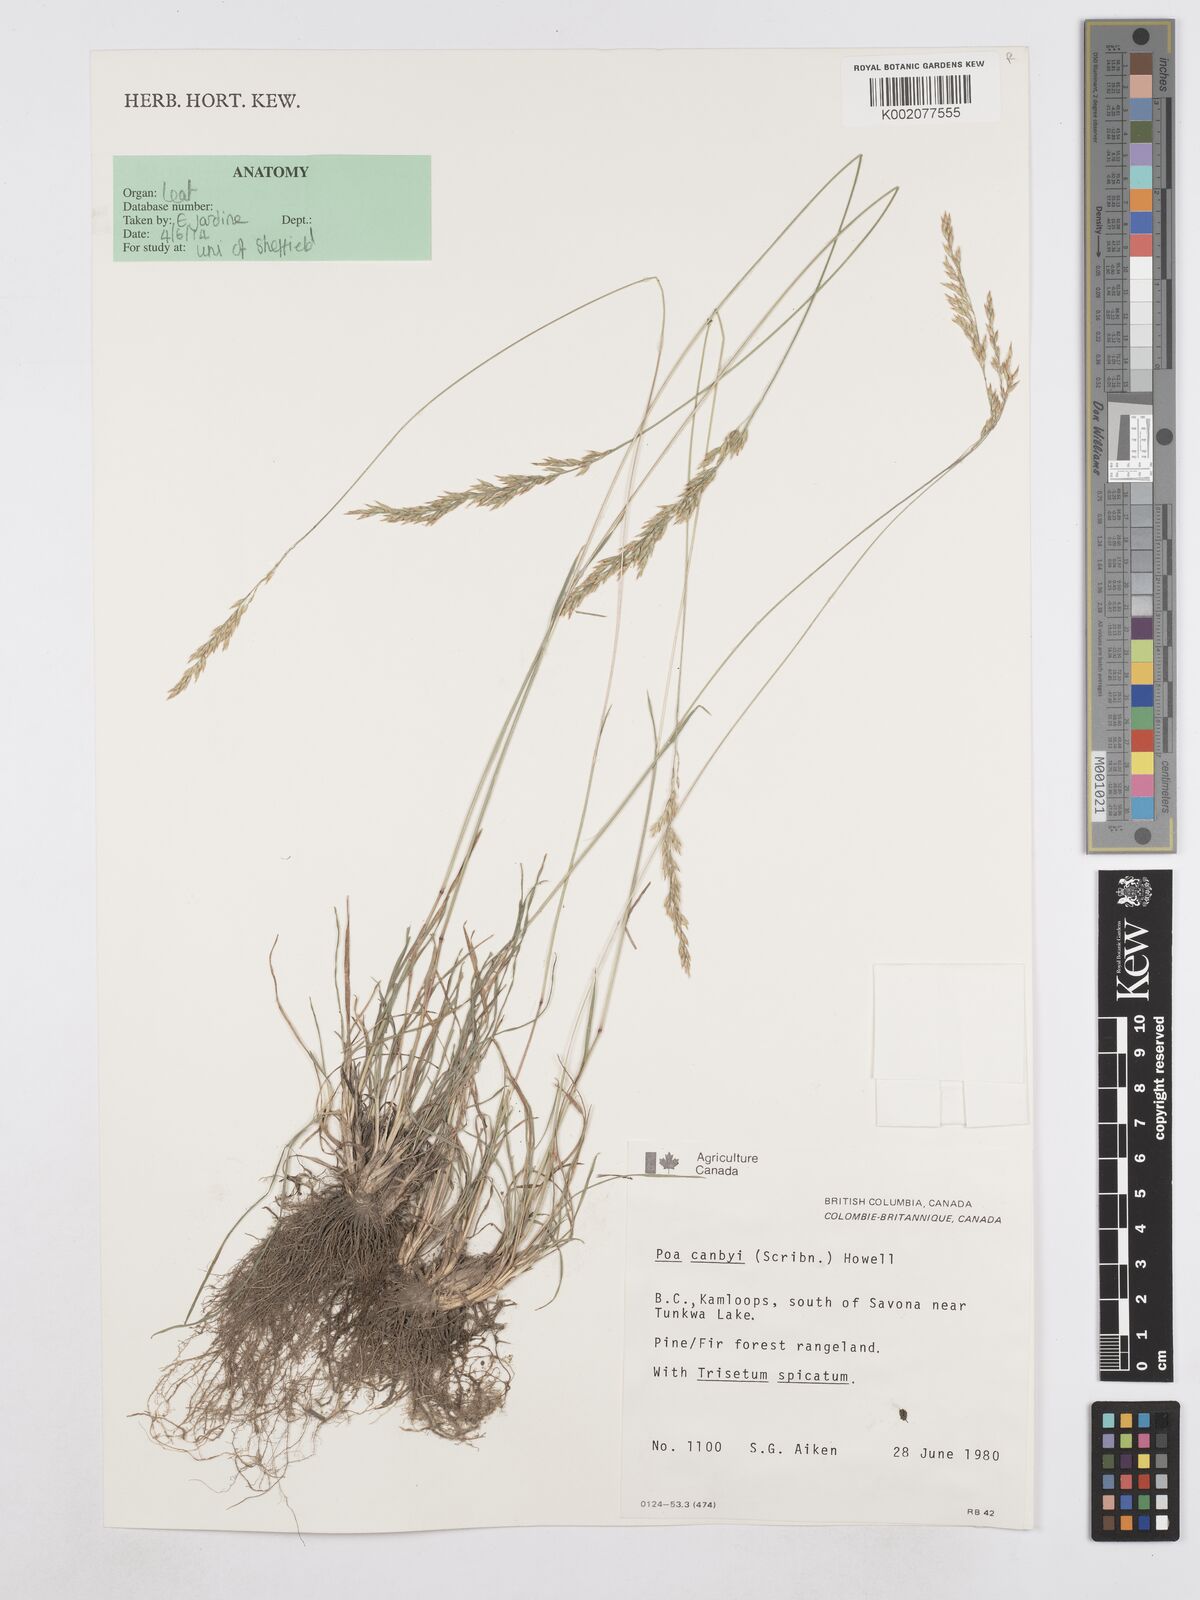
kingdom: Plantae
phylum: Tracheophyta
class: Liliopsida
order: Poales
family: Poaceae
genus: Poa
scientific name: Poa secunda
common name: Sandberg bluegrass
